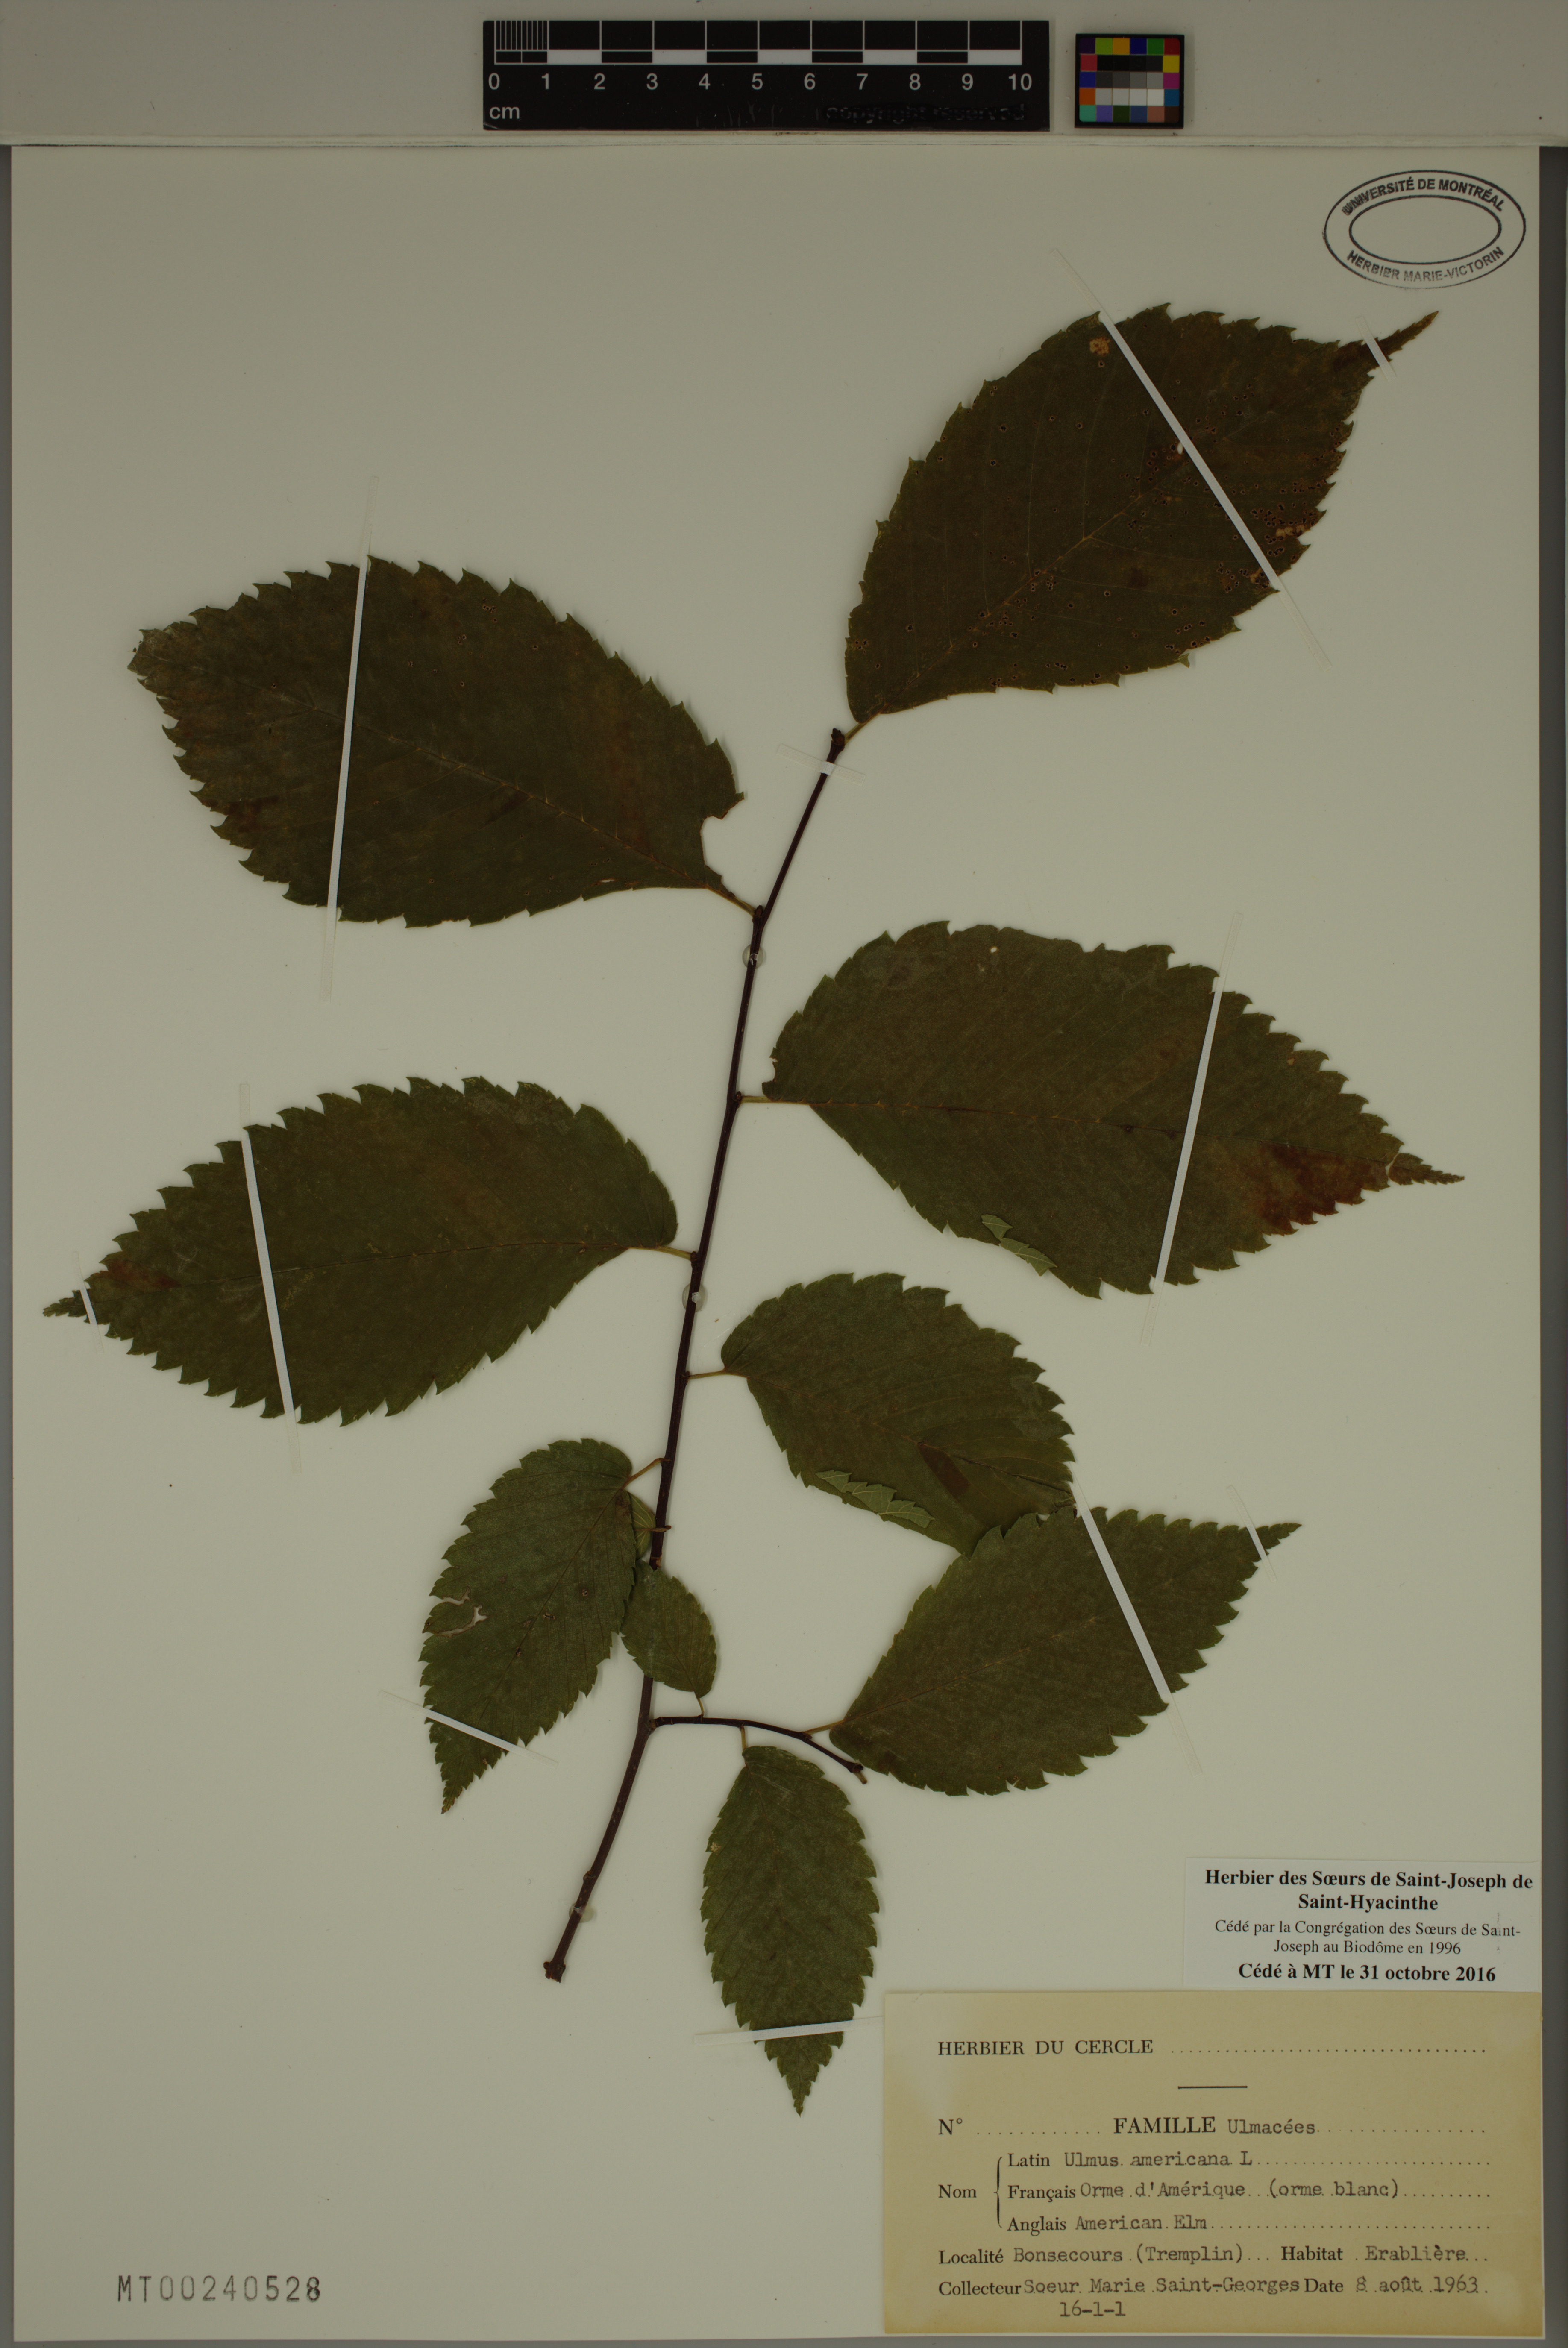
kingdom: Plantae
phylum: Tracheophyta
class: Magnoliopsida
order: Rosales
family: Ulmaceae
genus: Ulmus
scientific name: Ulmus americana
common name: American elm
